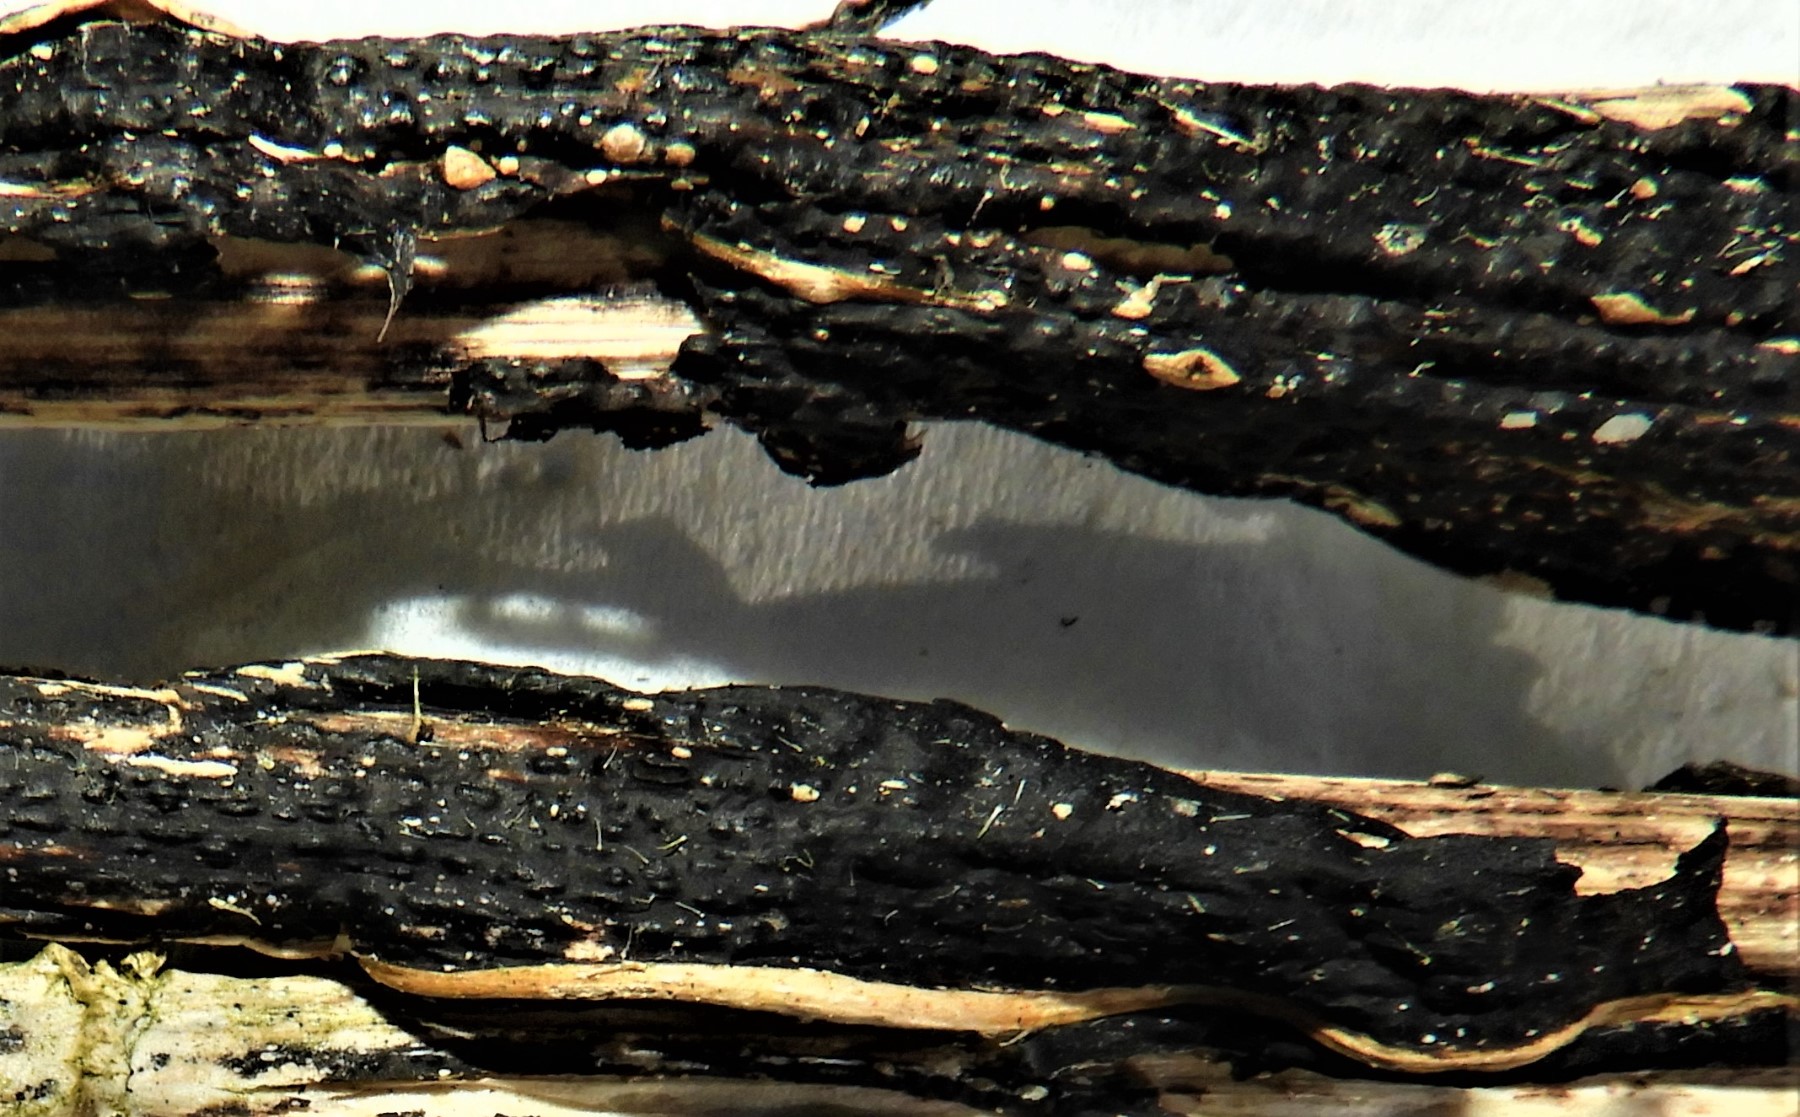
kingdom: Fungi
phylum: Ascomycota
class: Sordariomycetes
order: Diaporthales
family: Diaporthaceae
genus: Diaporthopsis
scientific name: Diaporthopsis urticae
